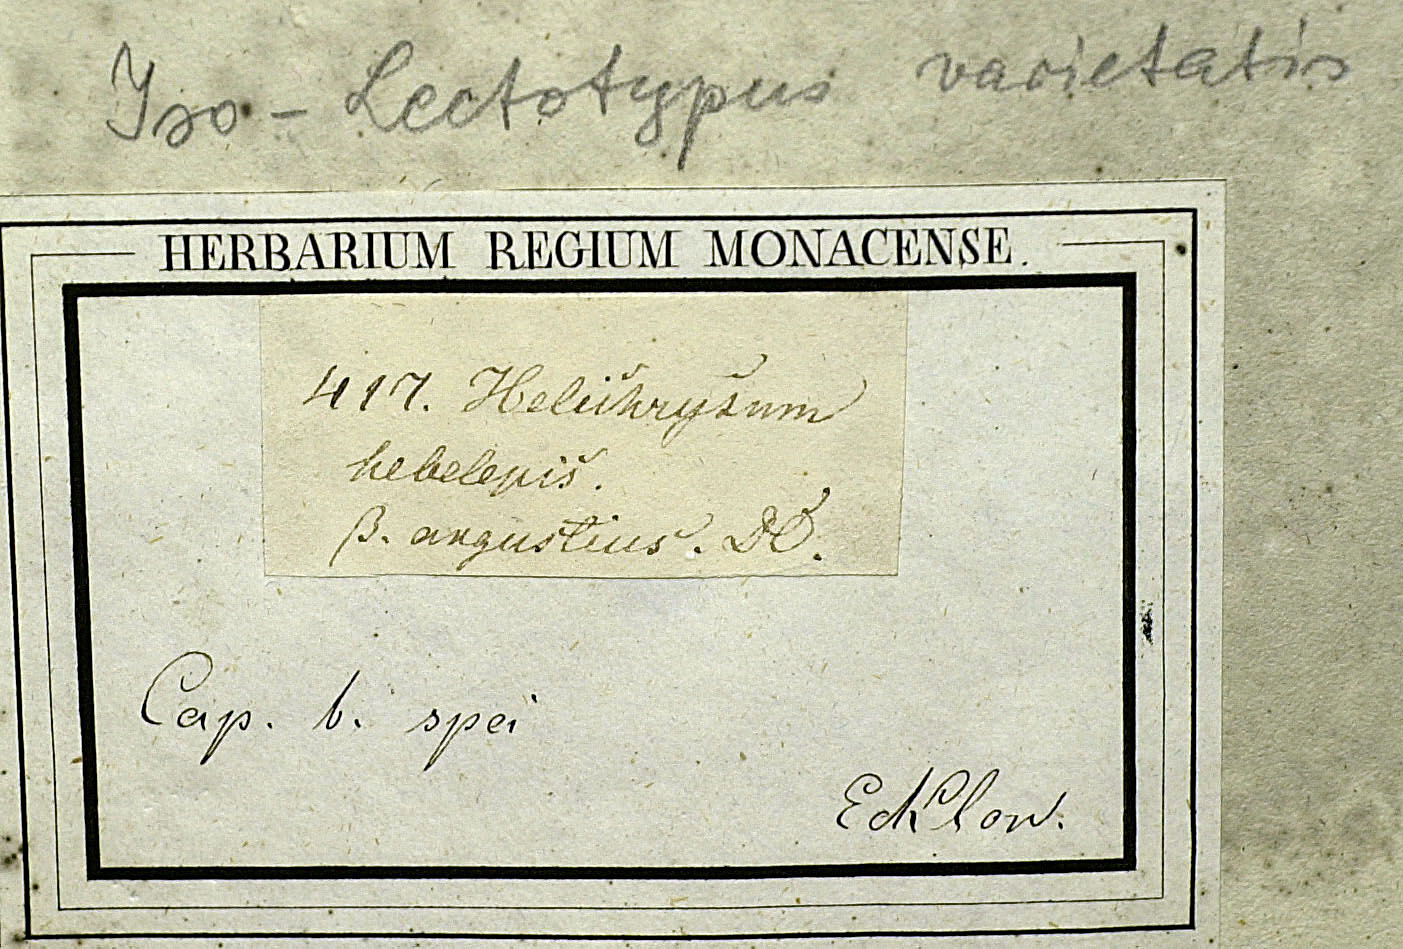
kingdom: Plantae
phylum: Tracheophyta
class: Magnoliopsida
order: Asterales
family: Asteraceae
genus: Helichrysum
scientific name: Helichrysum hebelepis
